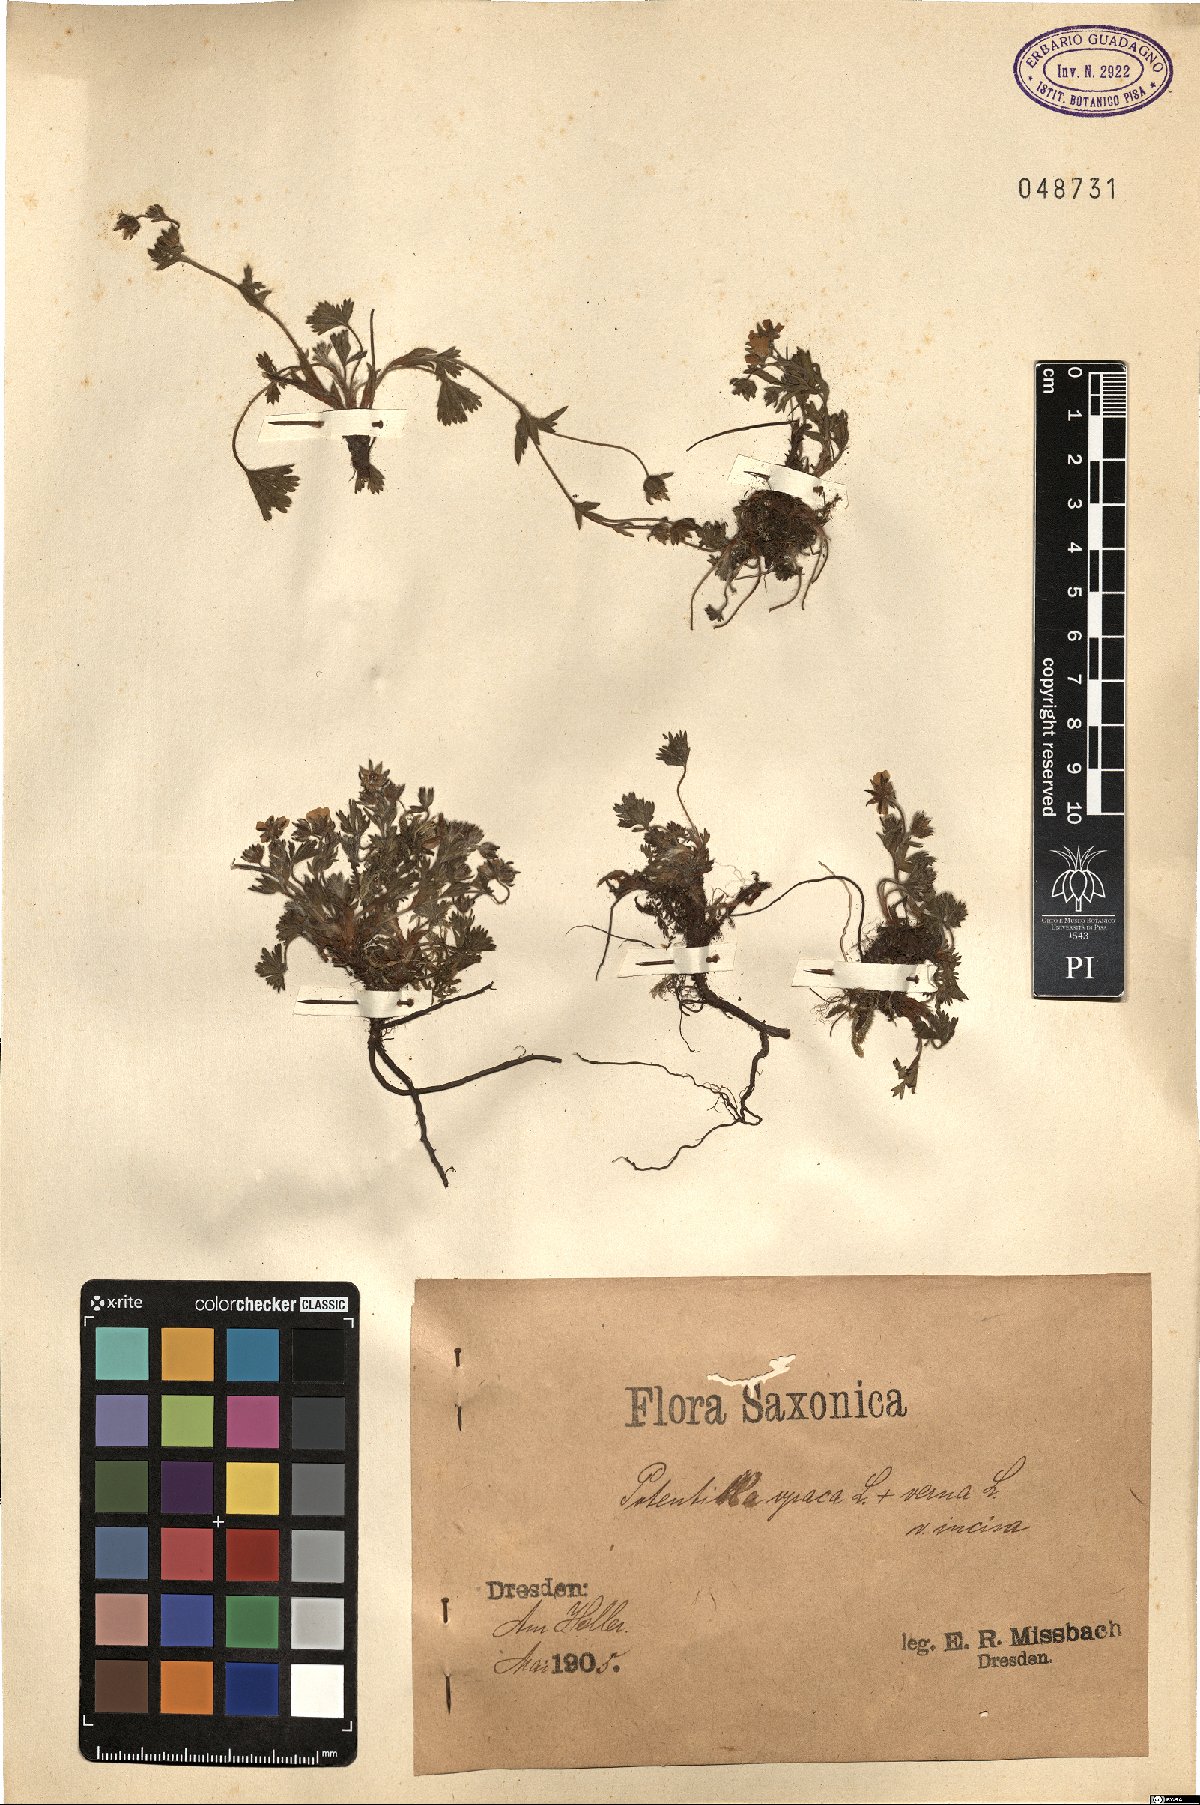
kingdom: Plantae
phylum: Tracheophyta
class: Magnoliopsida
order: Rosales
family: Rosaceae
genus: Potentilla
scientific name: Potentilla
